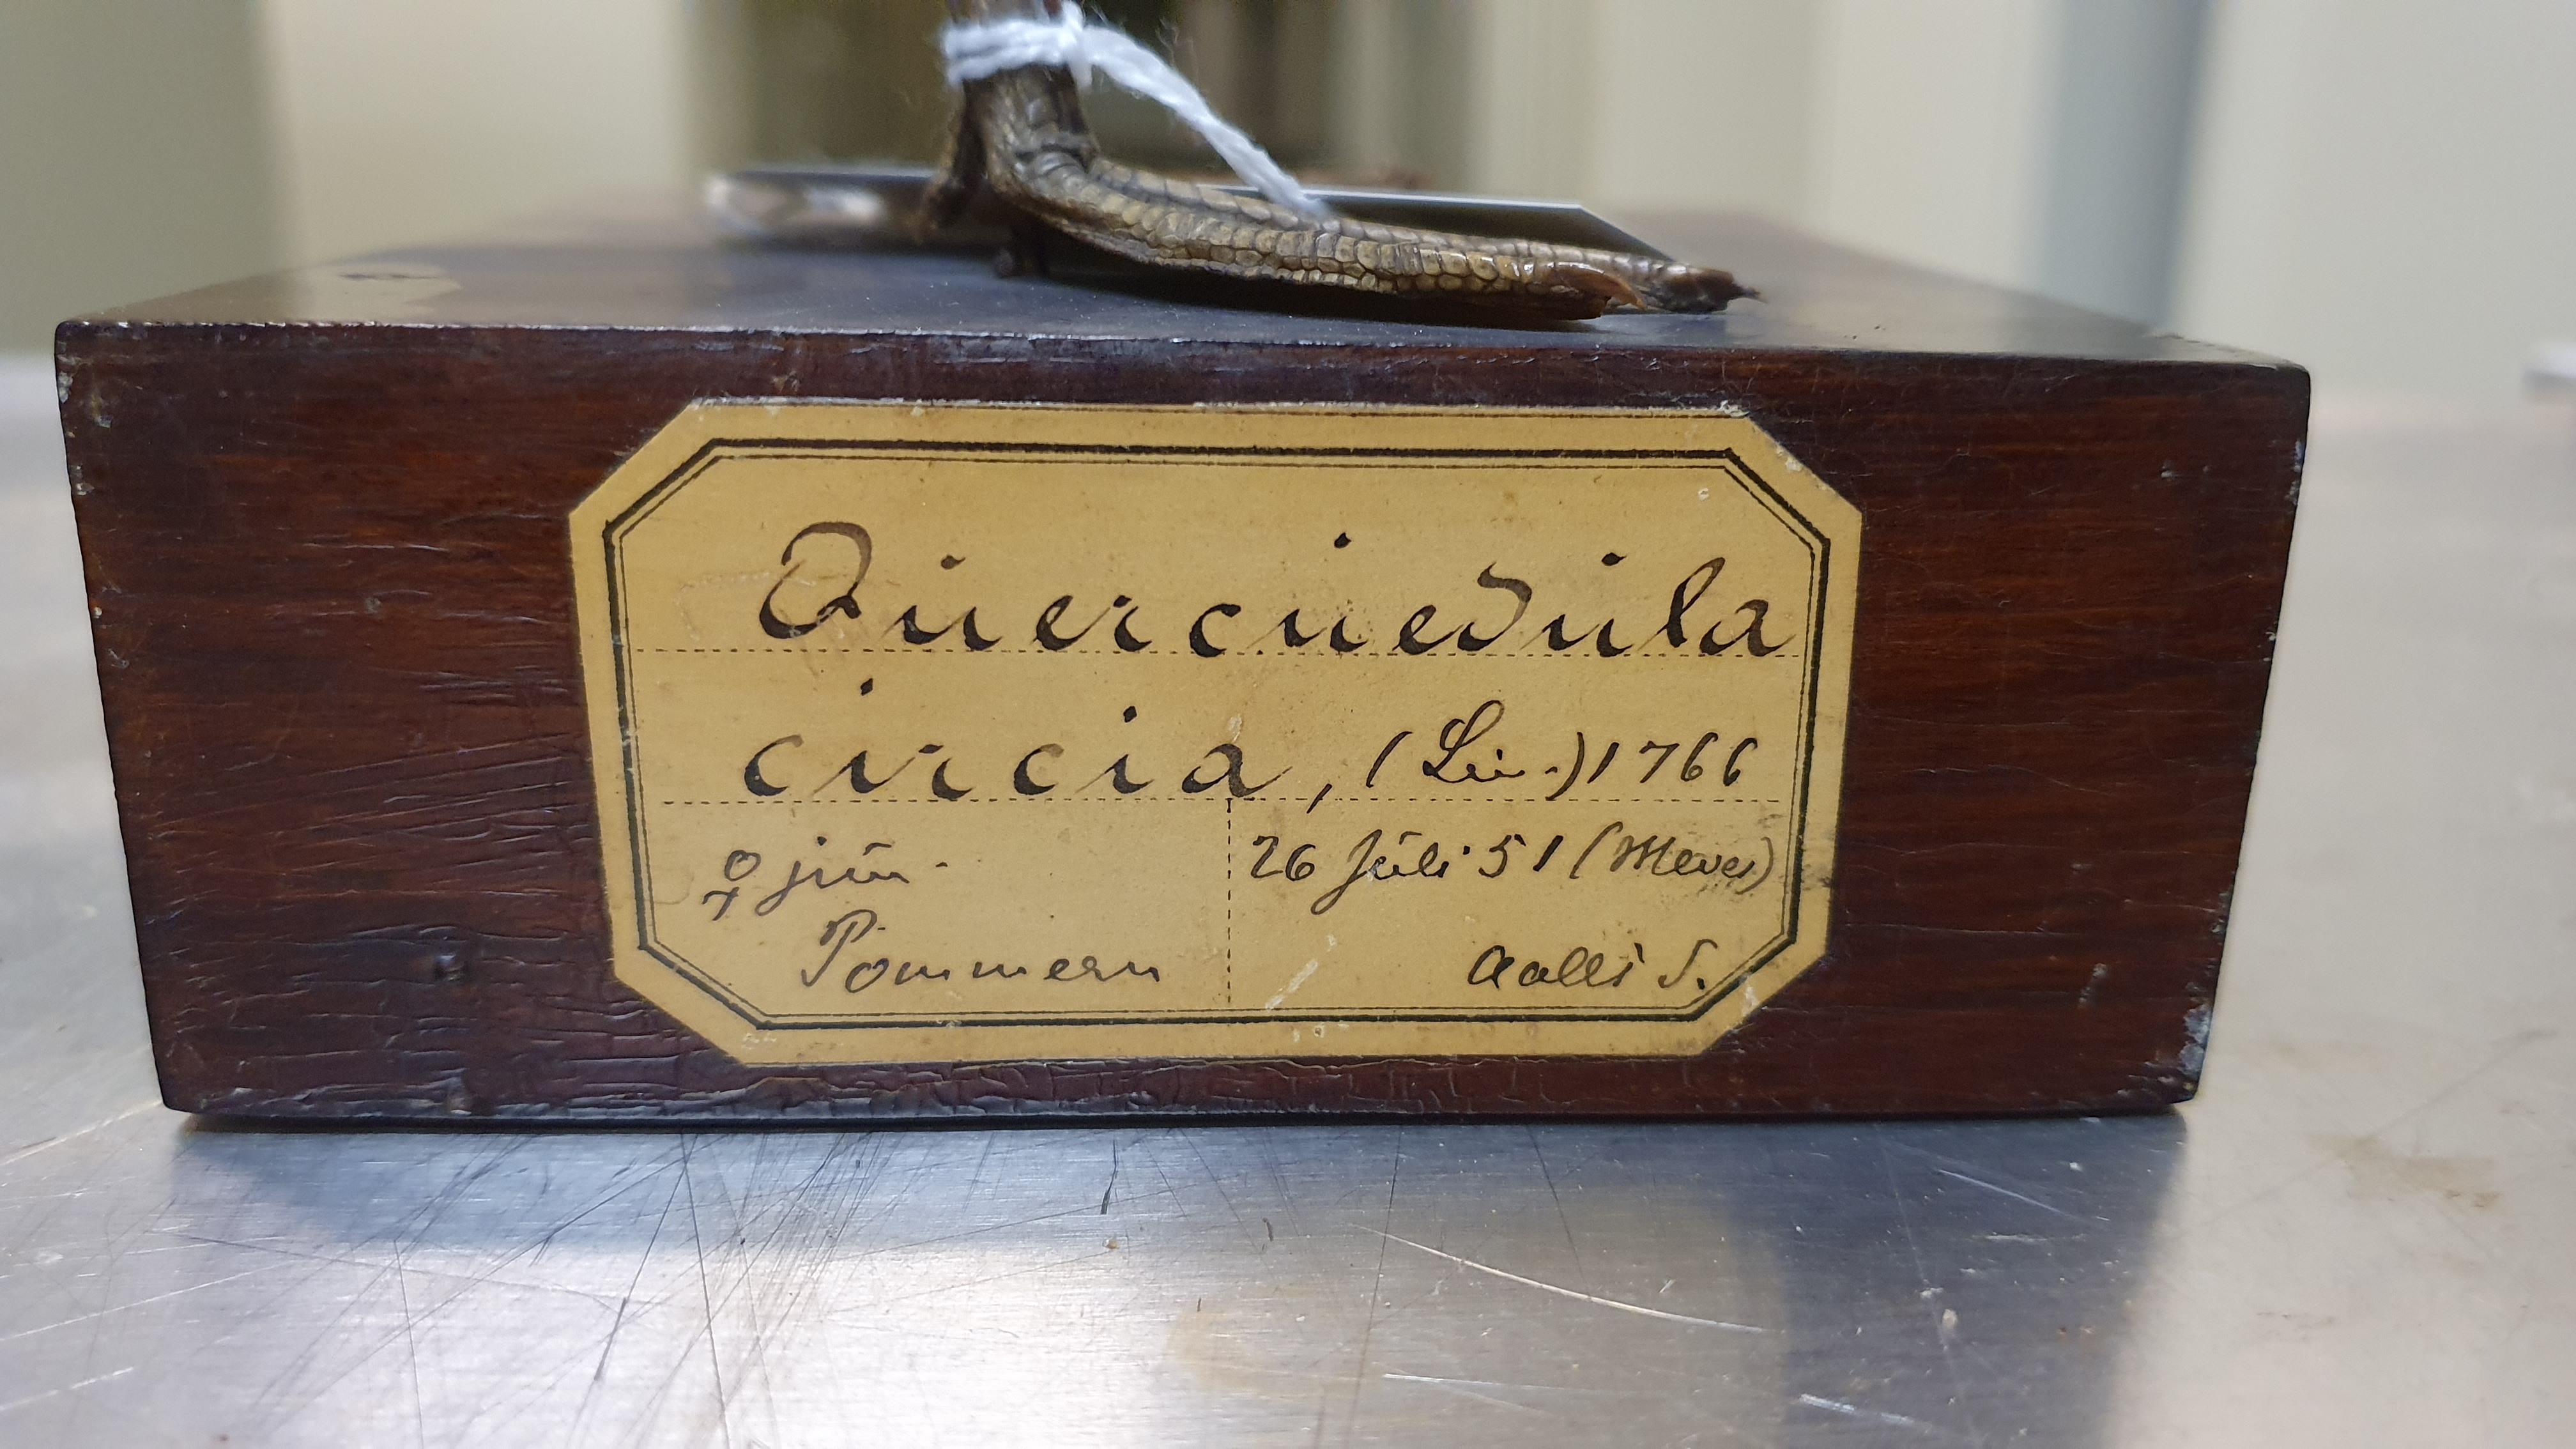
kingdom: Animalia
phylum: Chordata
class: Aves
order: Anseriformes
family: Anatidae
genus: Spatula
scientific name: Spatula querquedula
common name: Garganey
